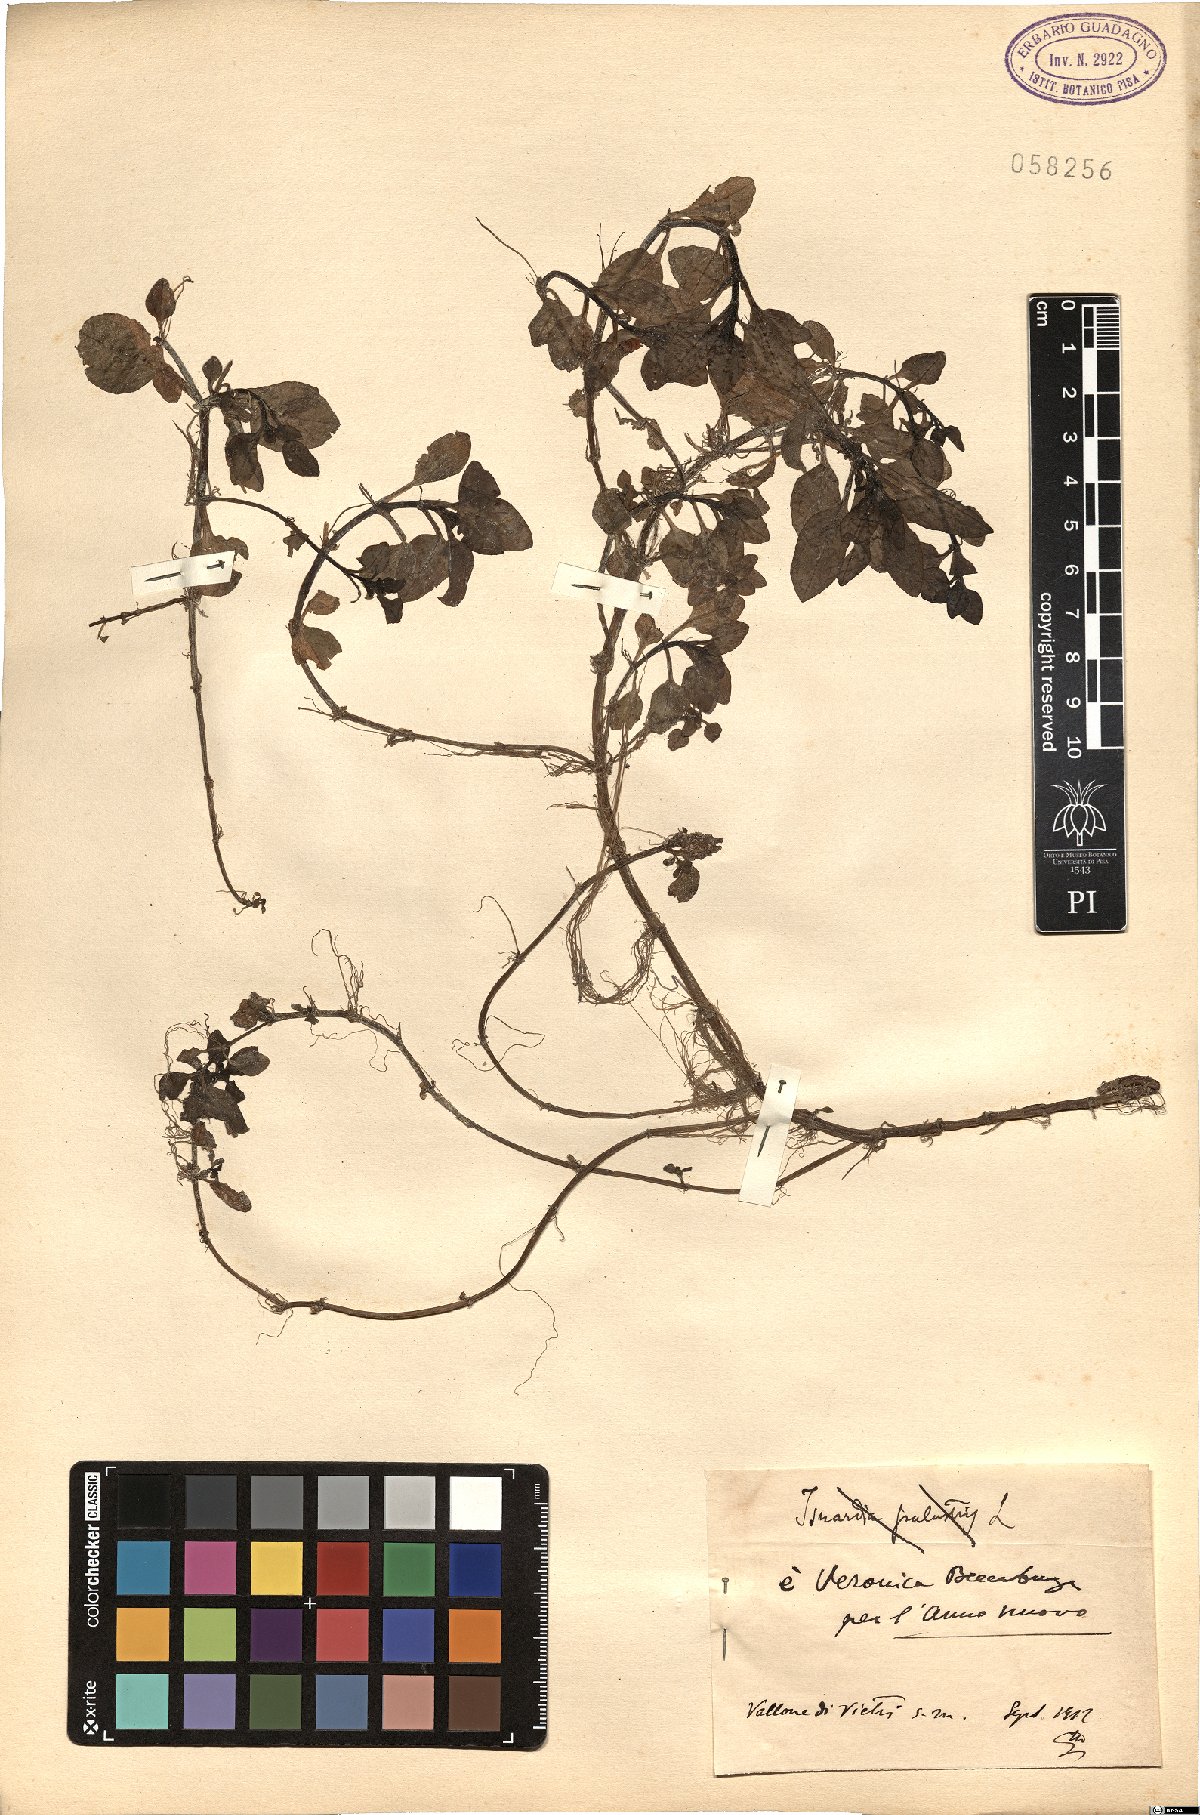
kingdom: Plantae
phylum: Tracheophyta
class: Magnoliopsida
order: Lamiales
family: Plantaginaceae
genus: Veronica
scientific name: Veronica beccabunga
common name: Brooklime
